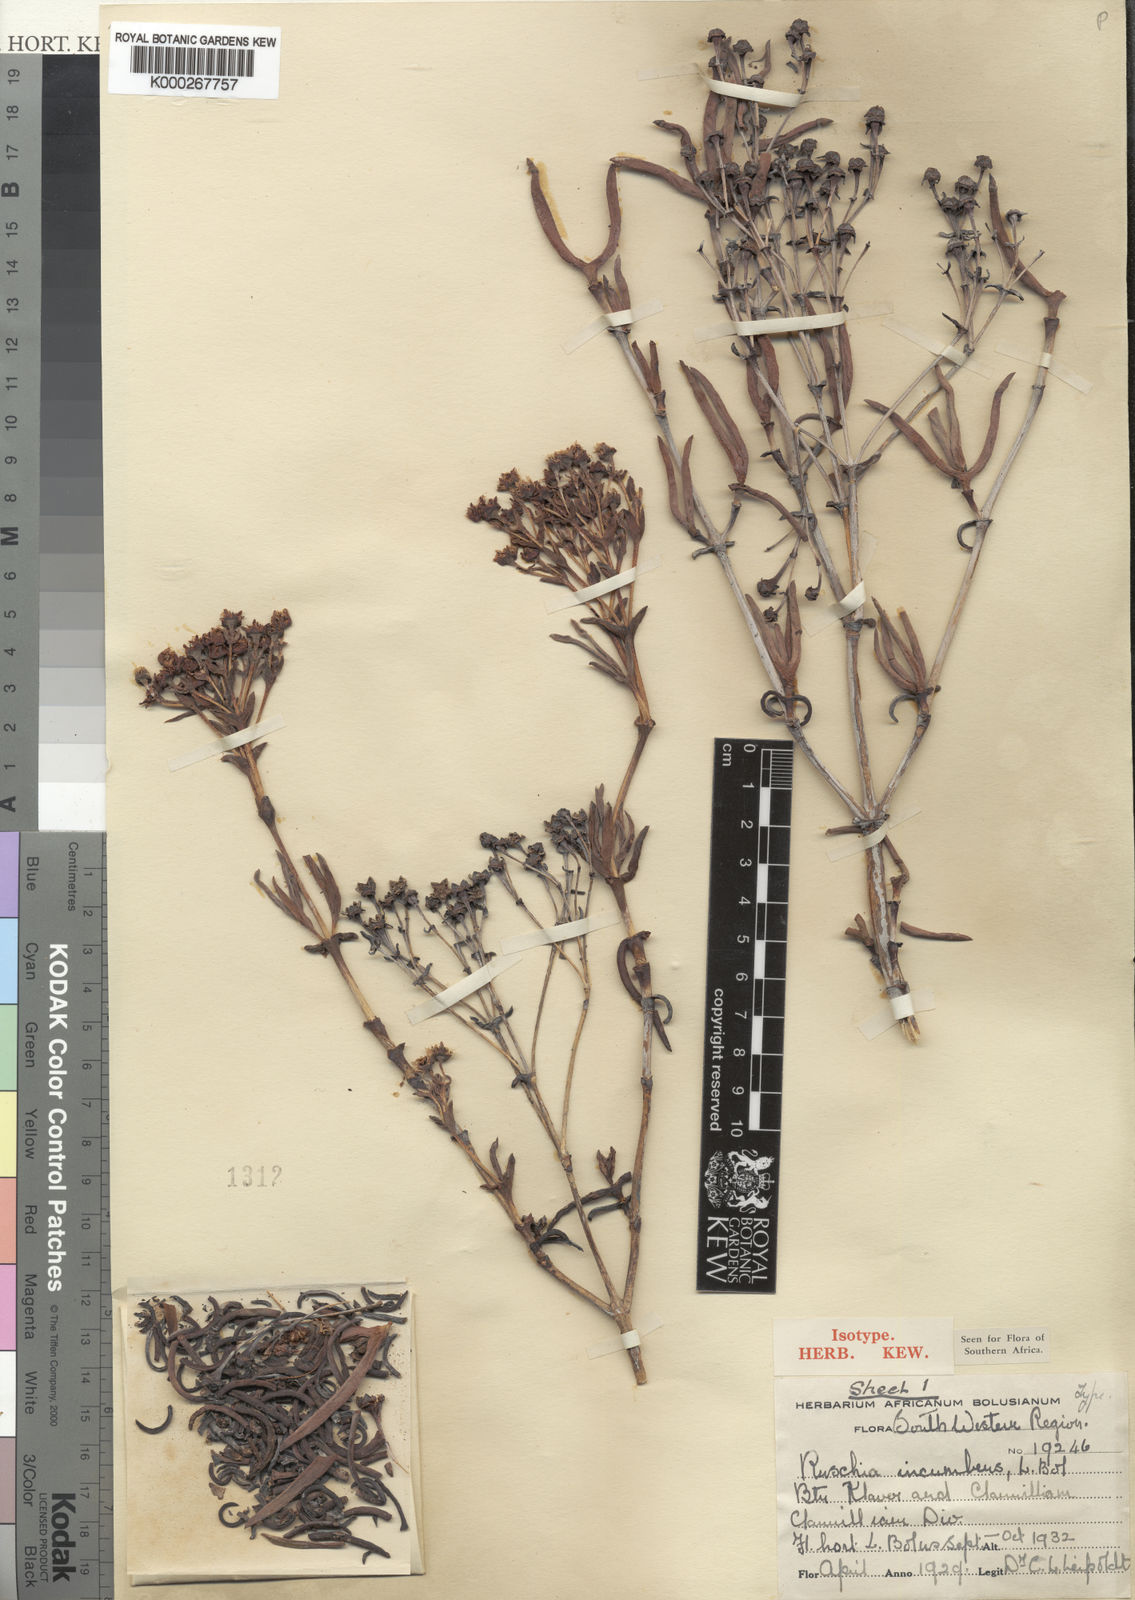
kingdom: Plantae
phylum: Tracheophyta
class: Magnoliopsida
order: Caryophyllales
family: Aizoaceae
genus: Phiambolia
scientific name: Phiambolia incumbens
